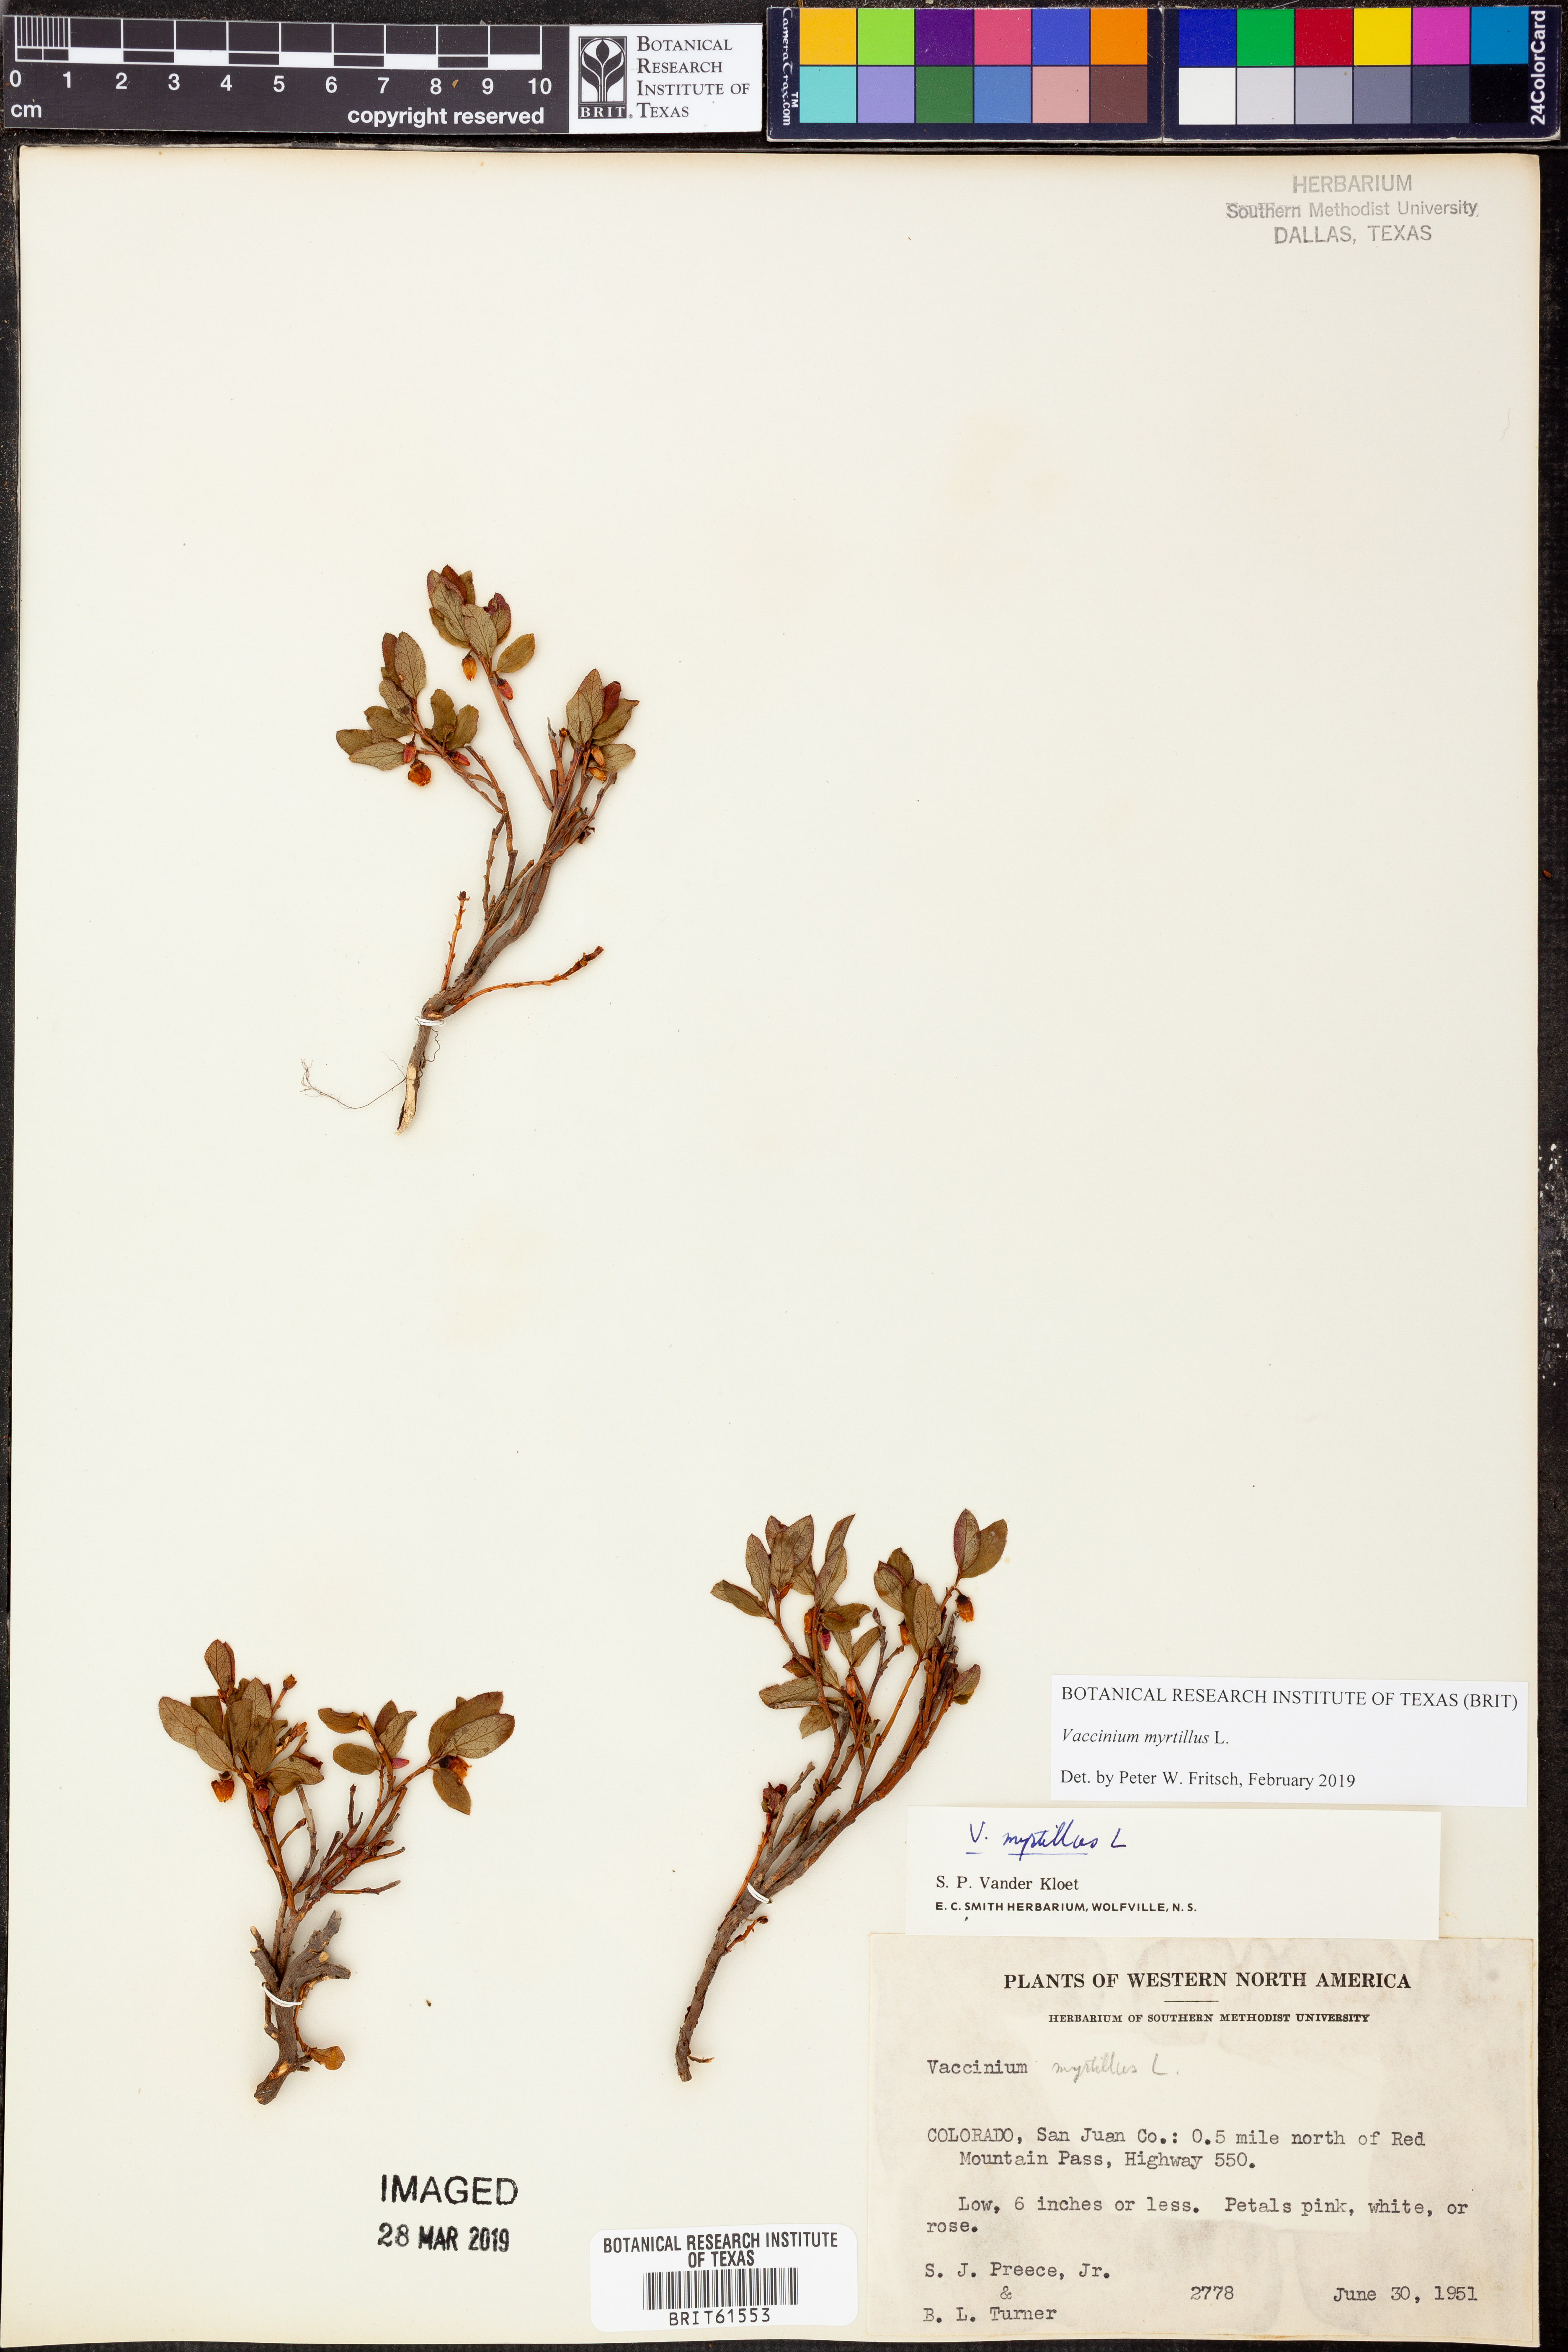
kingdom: Plantae
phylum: Tracheophyta
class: Magnoliopsida
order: Ericales
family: Ericaceae
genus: Vaccinium
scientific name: Vaccinium myrtillus
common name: Bilberry
